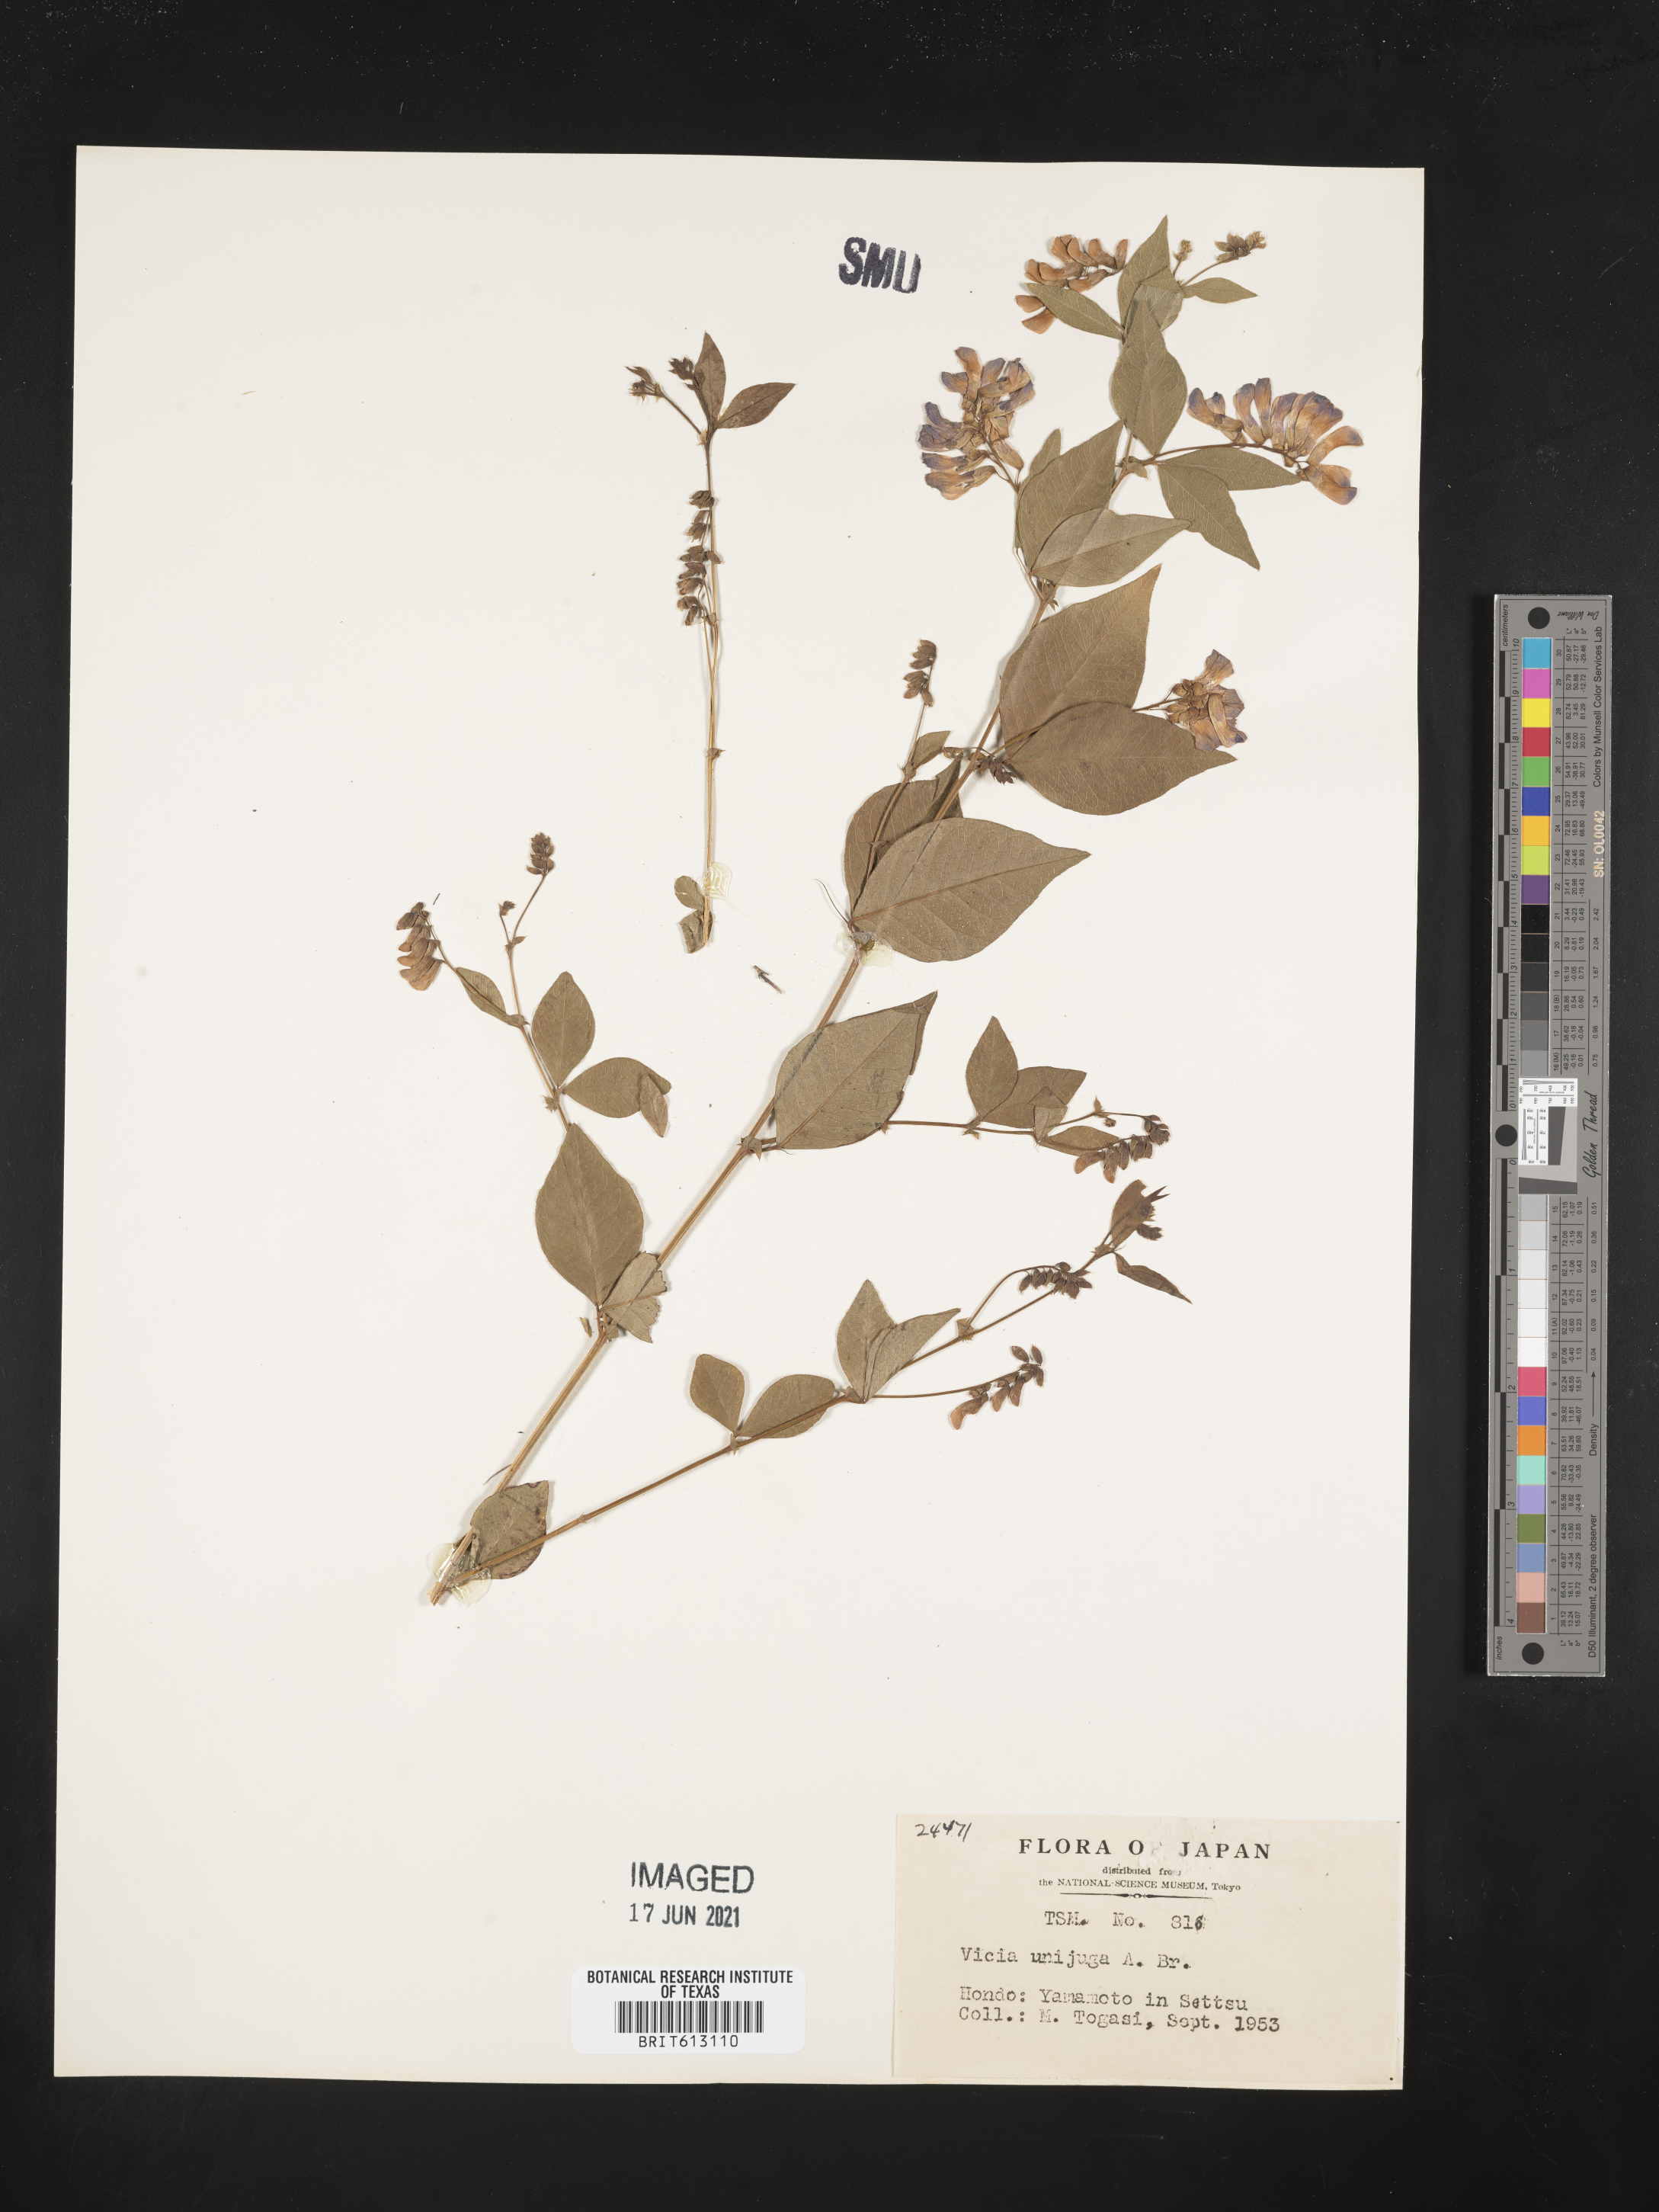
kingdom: Plantae
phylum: Tracheophyta
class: Magnoliopsida
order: Fabales
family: Fabaceae
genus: Vicia
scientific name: Vicia unijuga
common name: Two-leaf vetch
